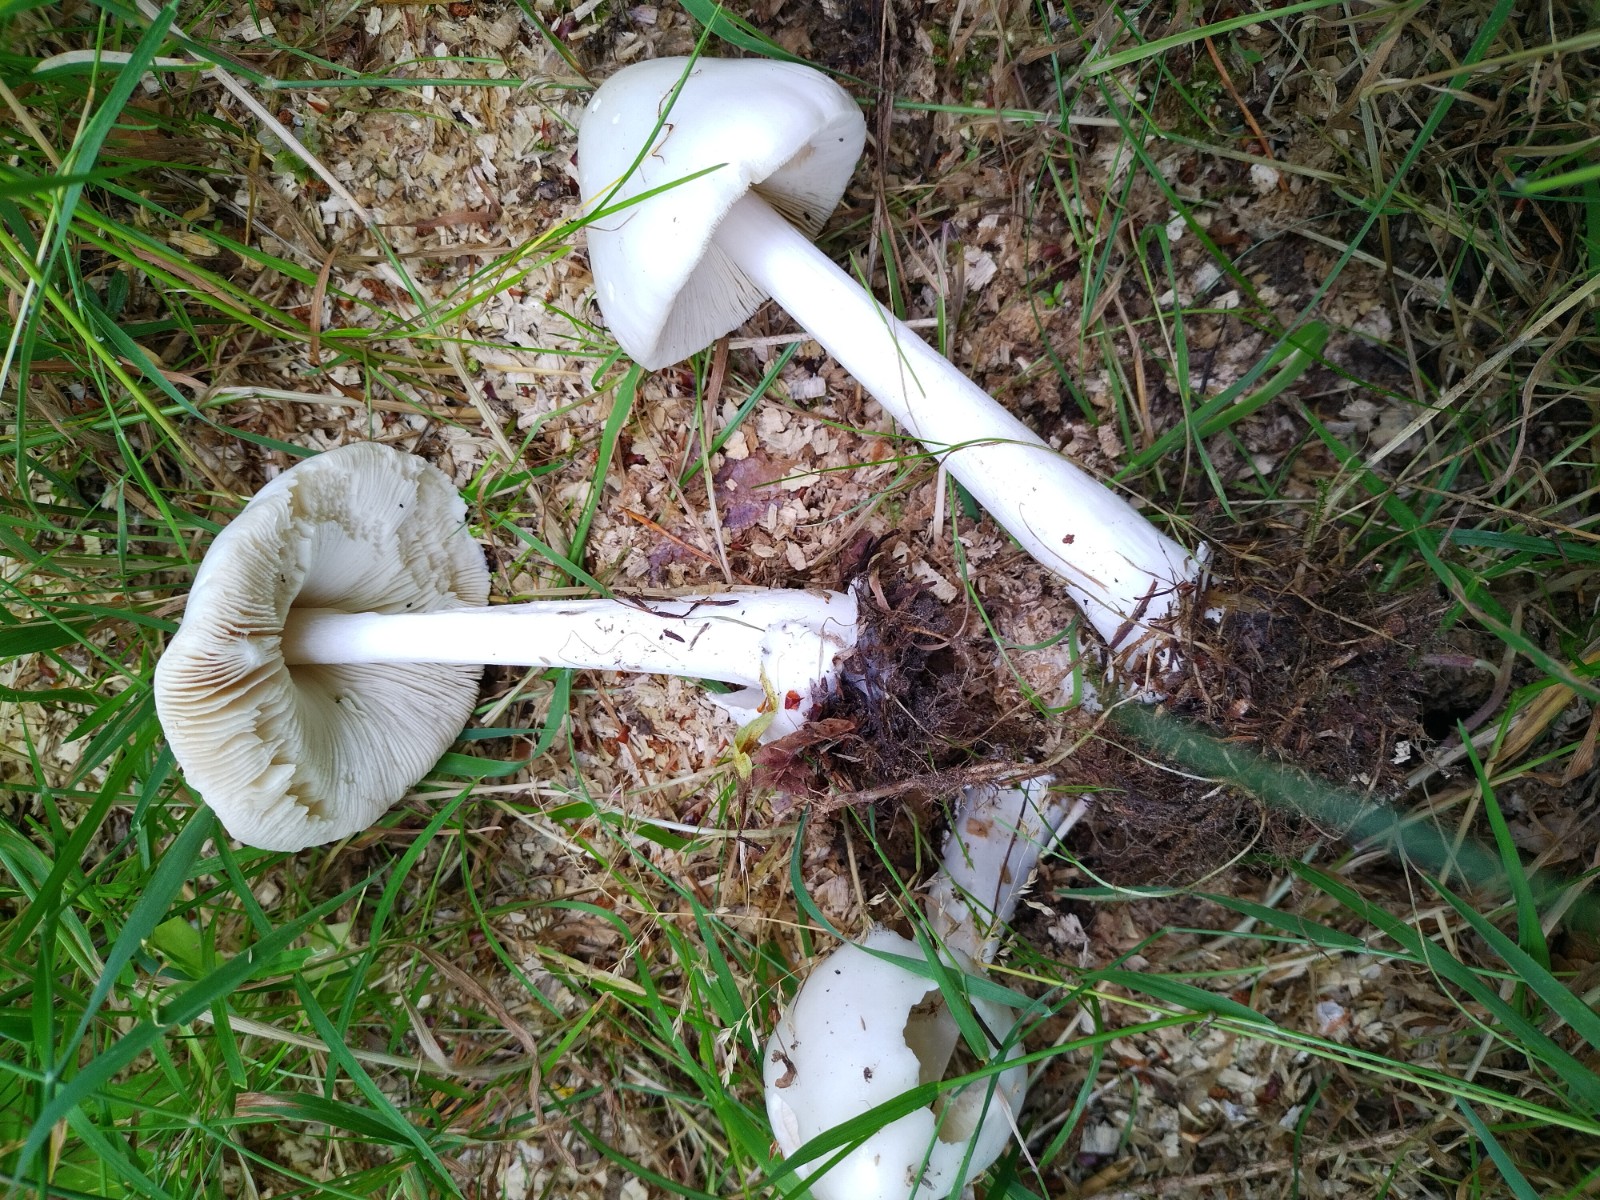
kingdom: Fungi
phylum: Basidiomycota
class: Agaricomycetes
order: Agaricales
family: Pluteaceae
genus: Volvopluteus
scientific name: Volvopluteus gloiocephalus
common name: høj posesvamp
